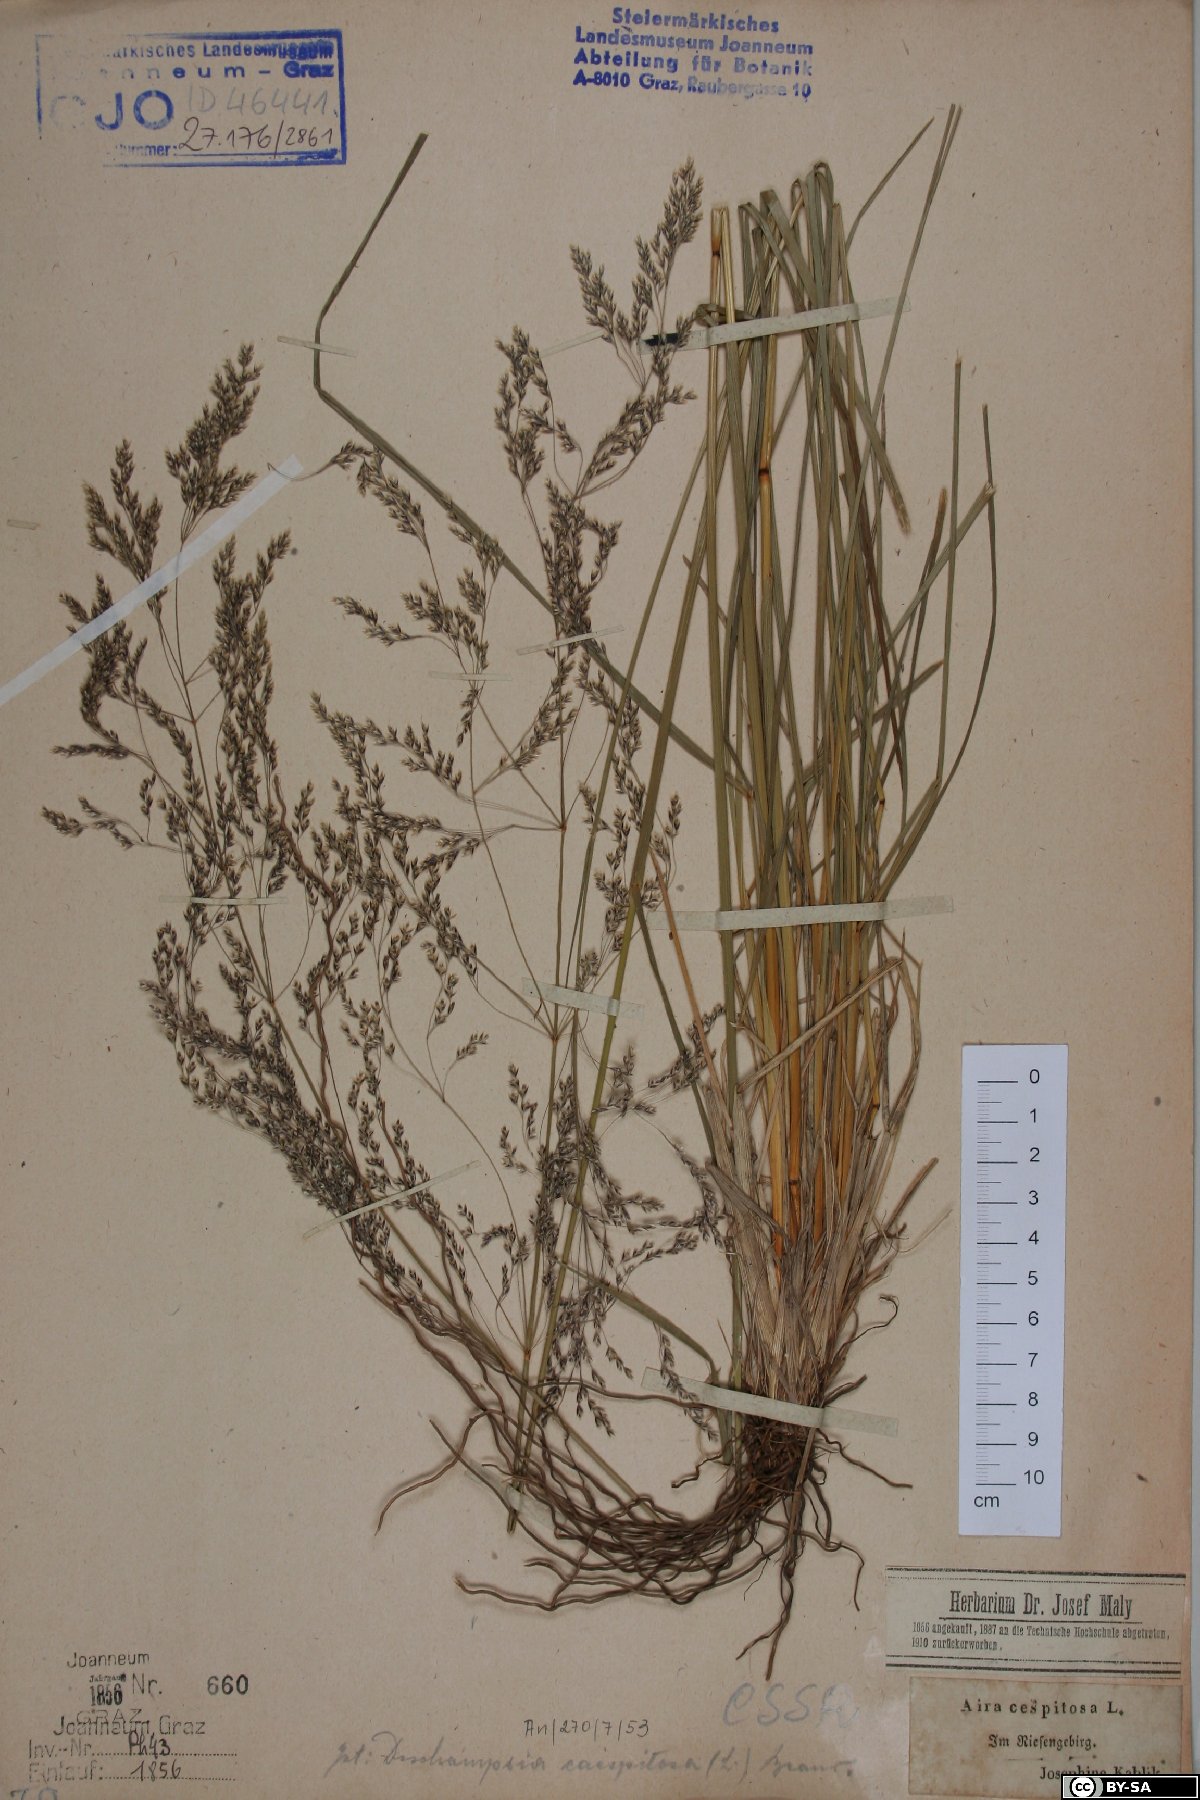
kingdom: Plantae
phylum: Tracheophyta
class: Liliopsida
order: Poales
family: Poaceae
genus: Deschampsia
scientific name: Deschampsia cespitosa
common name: Tufted hair-grass
